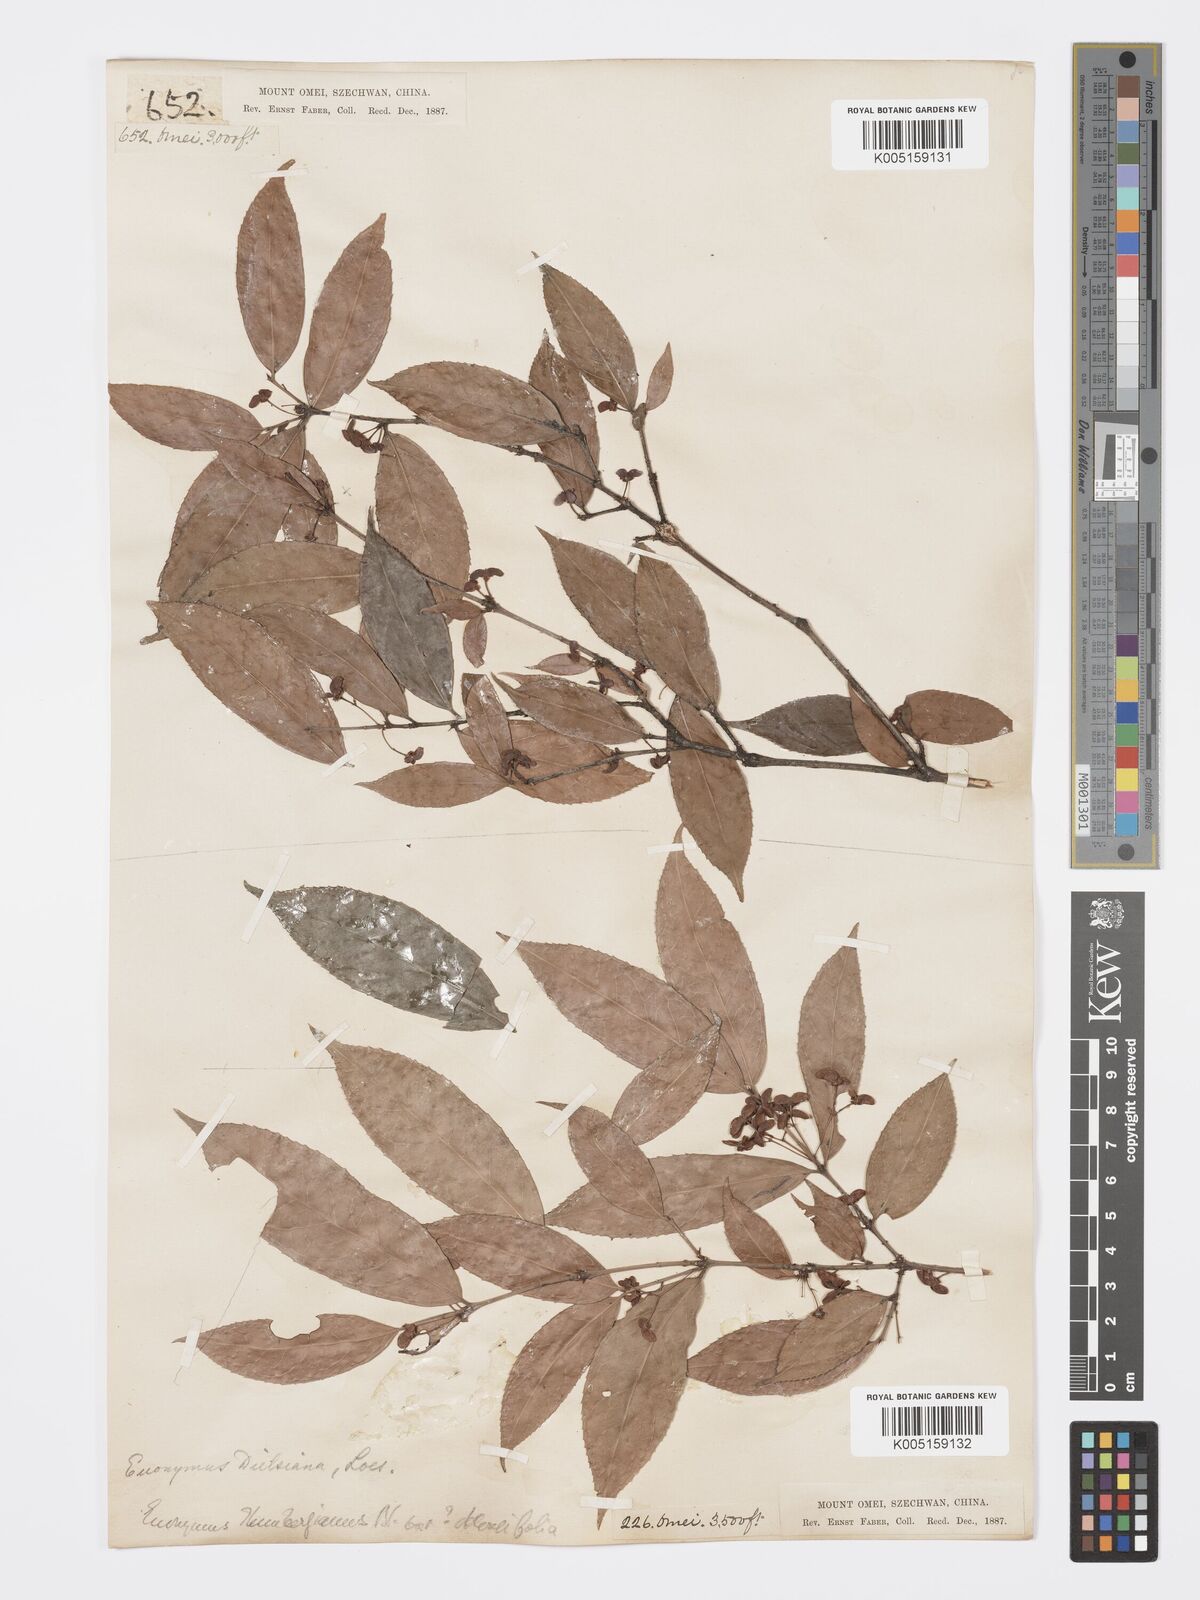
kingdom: Plantae
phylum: Tracheophyta
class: Magnoliopsida
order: Celastrales
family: Celastraceae
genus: Euonymus
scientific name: Euonymus centidens
